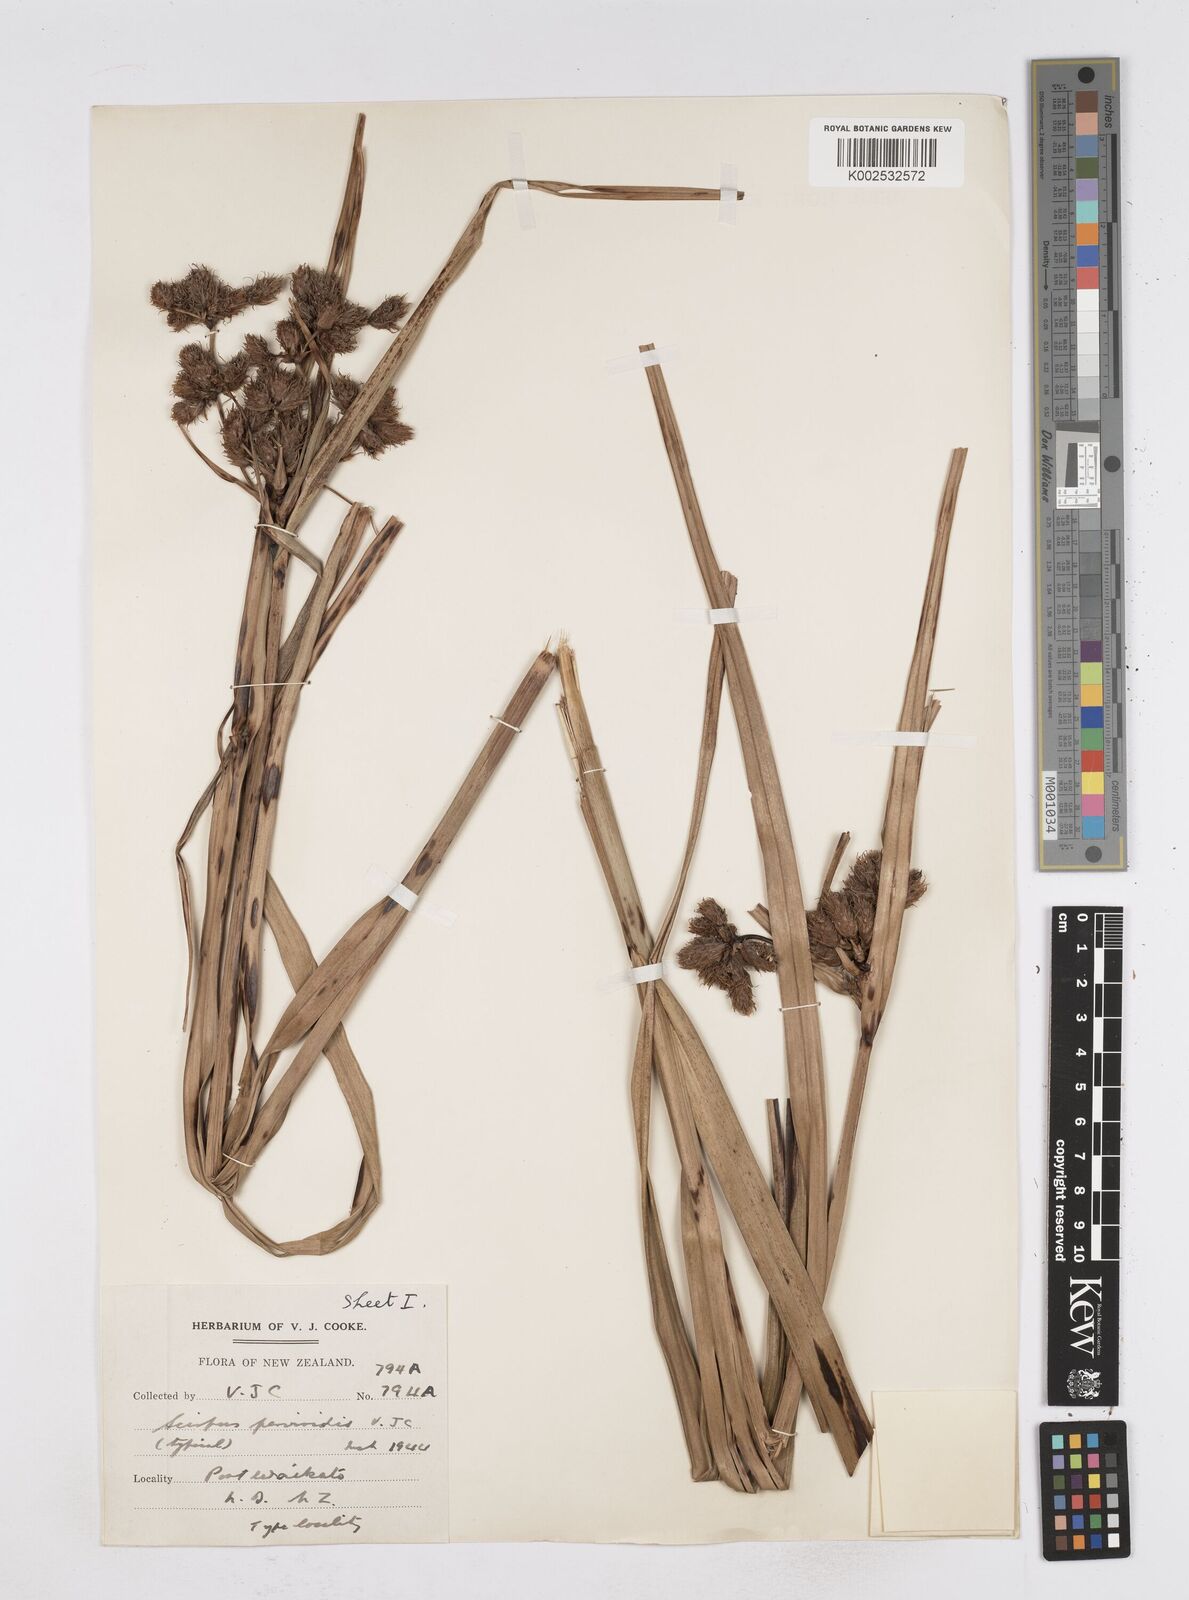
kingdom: Plantae
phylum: Tracheophyta
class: Liliopsida
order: Poales
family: Cyperaceae
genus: Bolboschoenus
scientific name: Bolboschoenus
